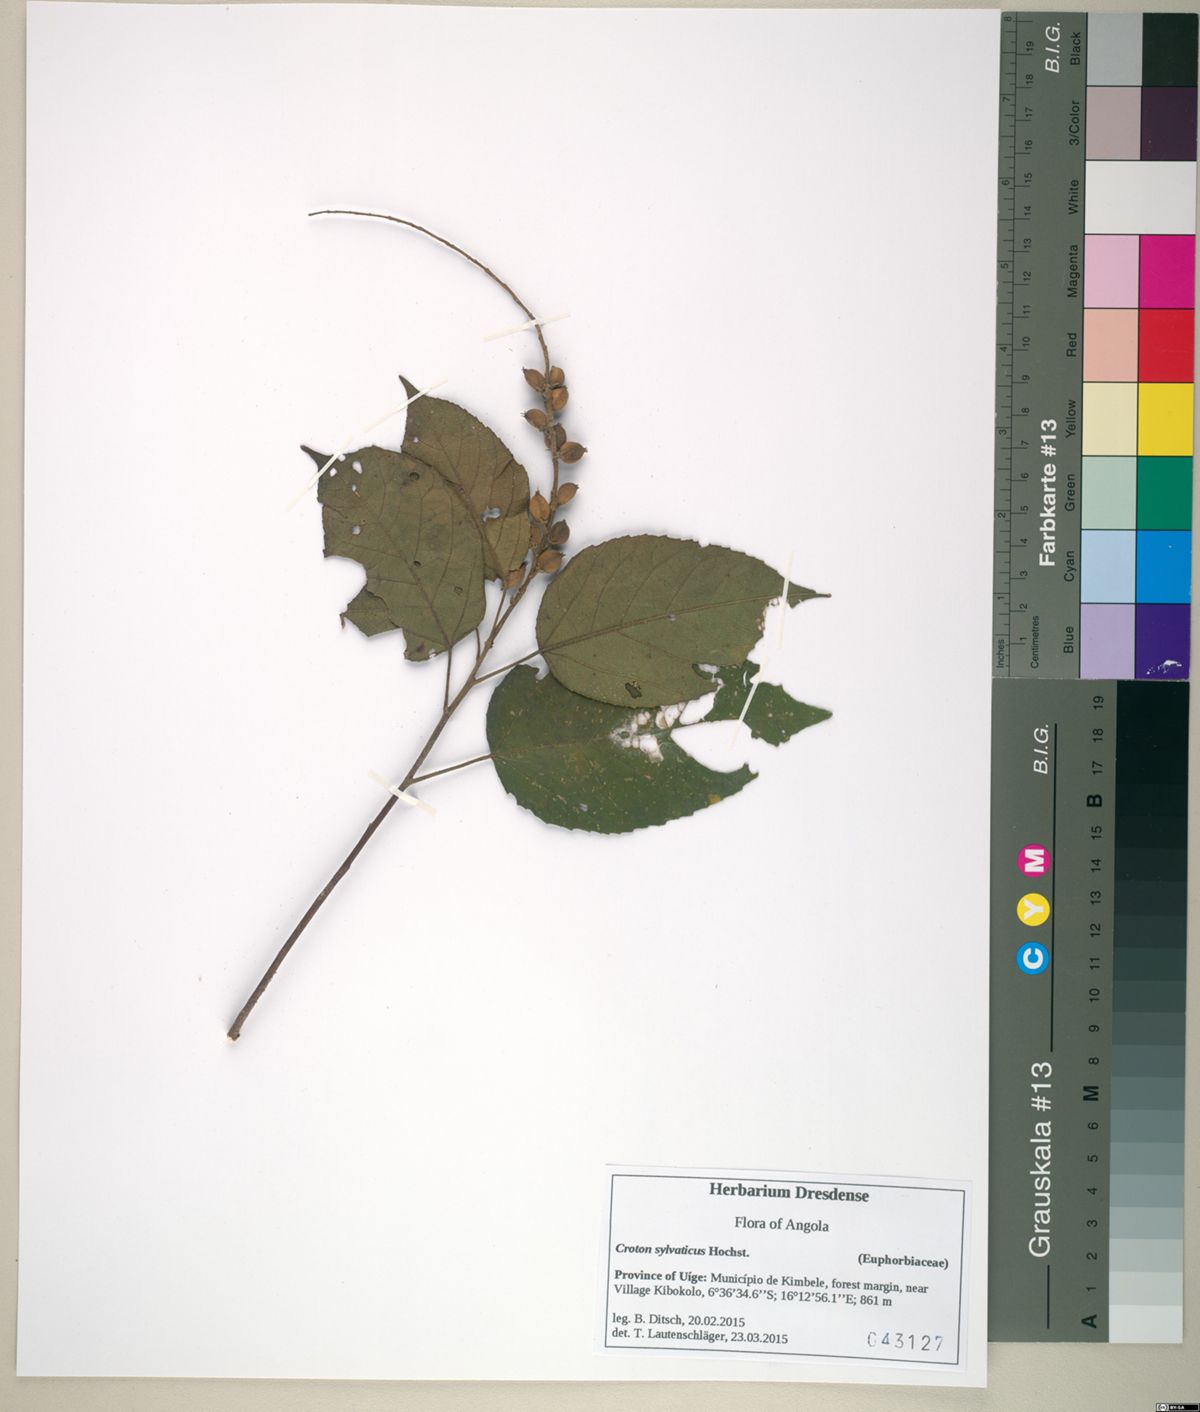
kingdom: Plantae
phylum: Tracheophyta
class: Magnoliopsida
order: Malpighiales
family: Euphorbiaceae
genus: Croton
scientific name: Croton sylvaticus
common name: Forest croton
